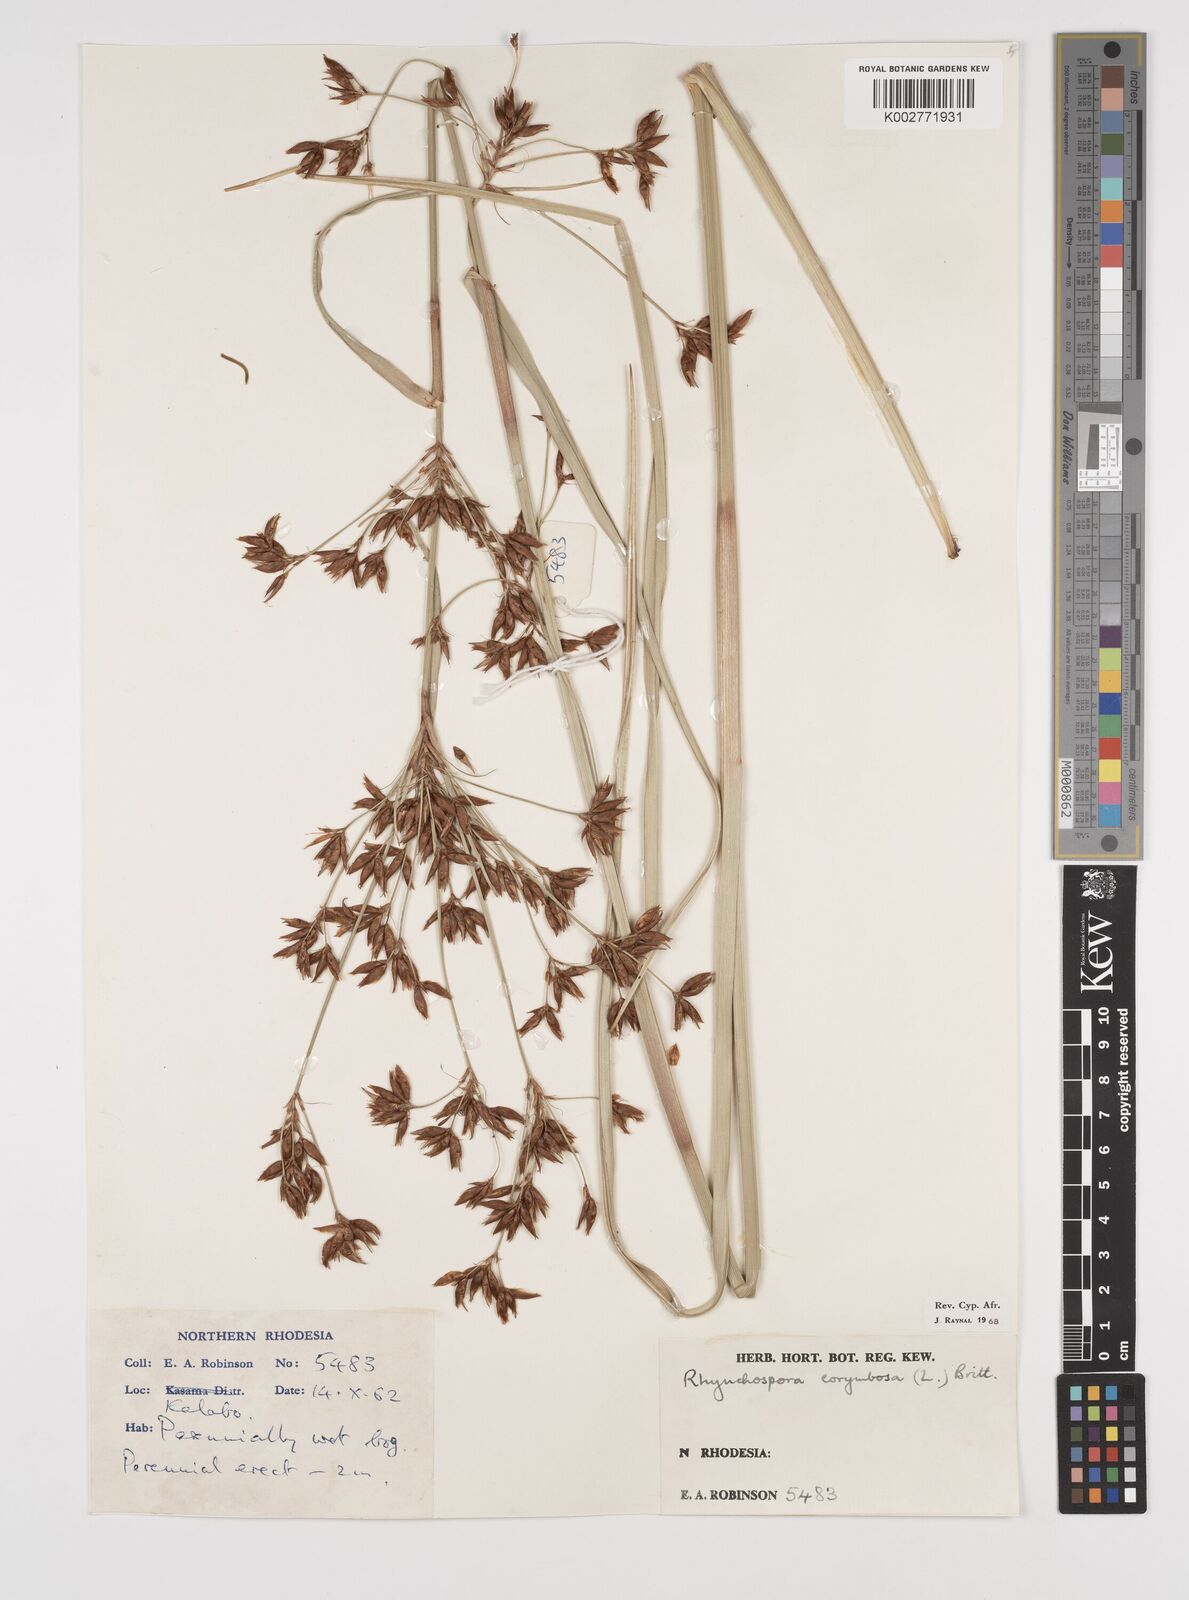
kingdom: Plantae
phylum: Tracheophyta
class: Liliopsida
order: Poales
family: Cyperaceae
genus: Rhynchospora
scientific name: Rhynchospora corymbosa
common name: Golden beak sedge
